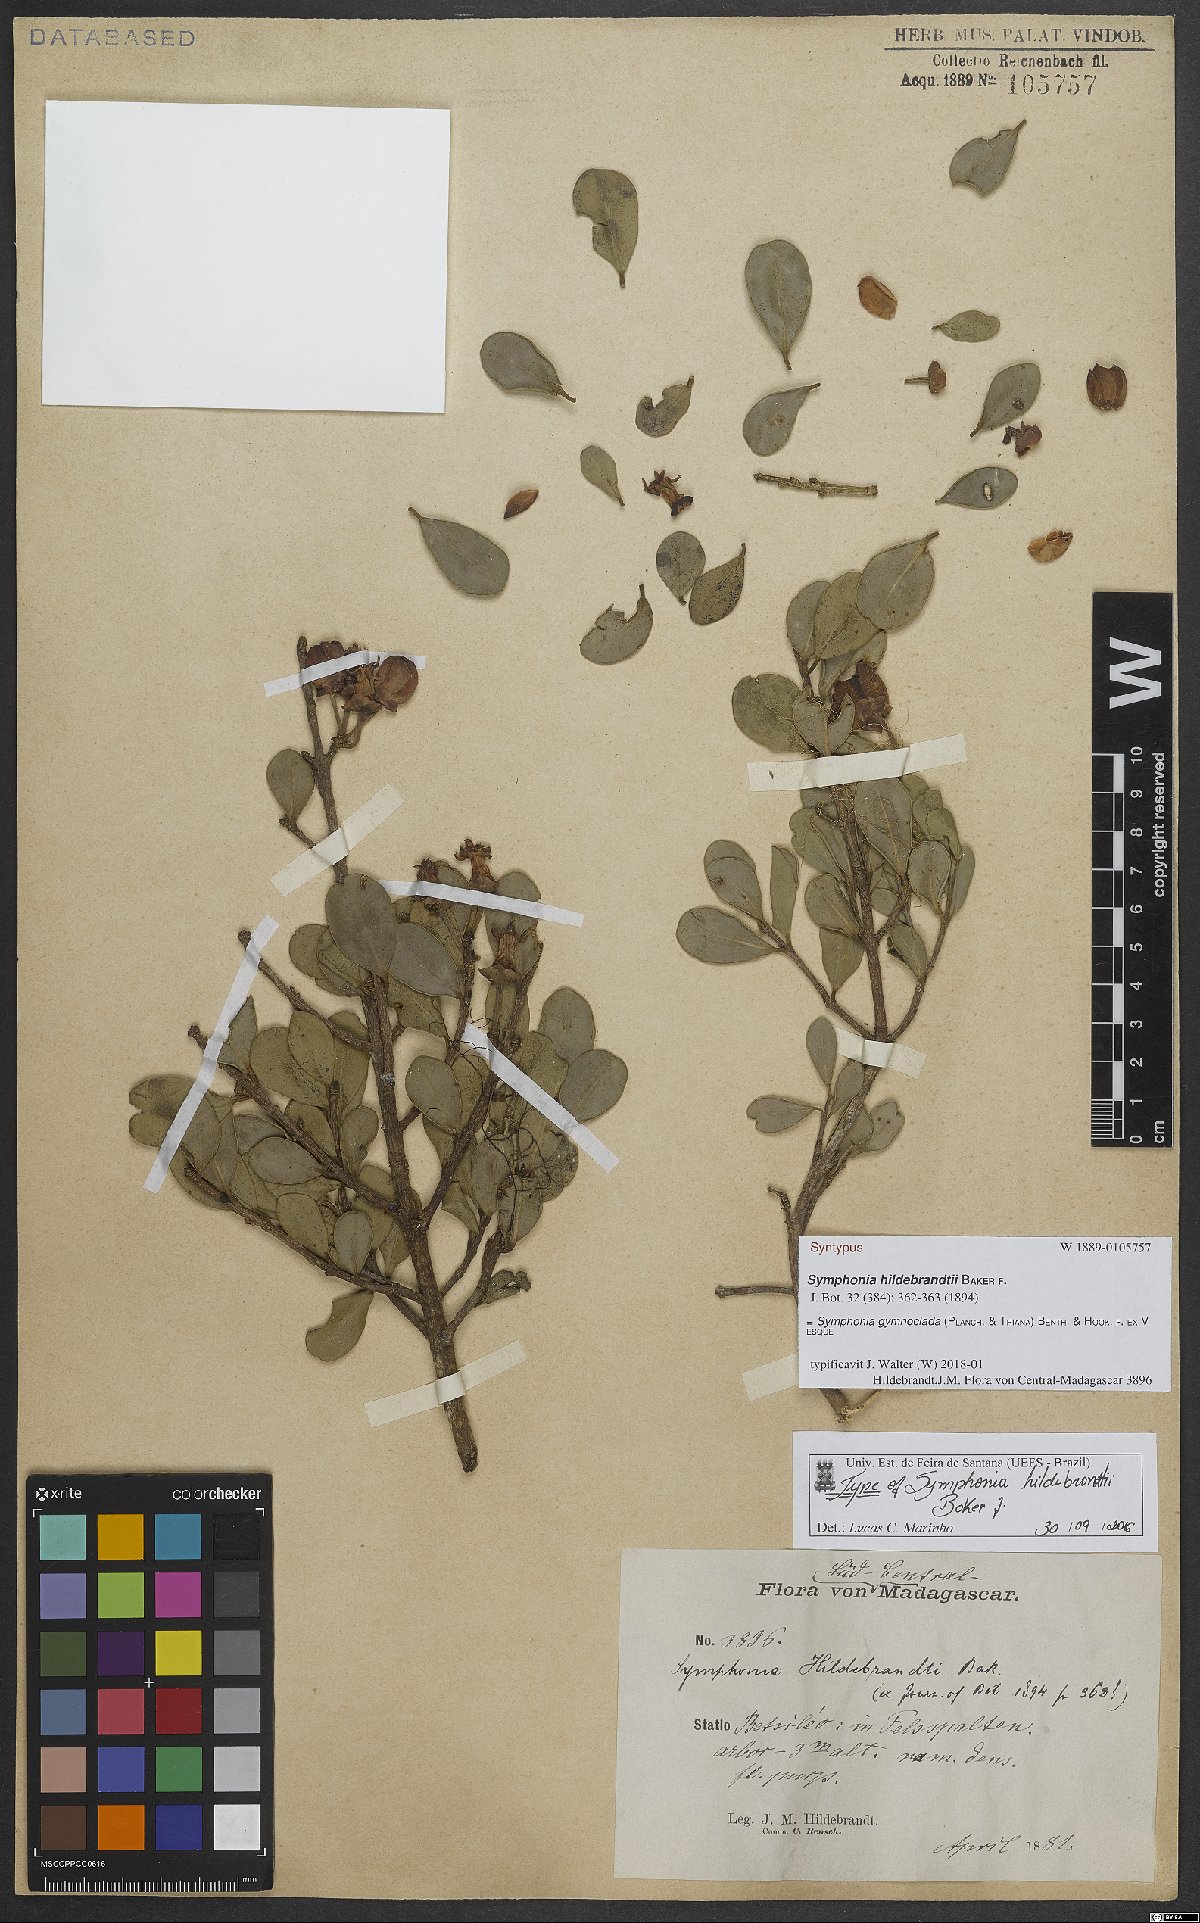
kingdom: Plantae
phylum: Tracheophyta
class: Magnoliopsida
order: Malpighiales
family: Clusiaceae
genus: Symphonia
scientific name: Symphonia gymnoclada
